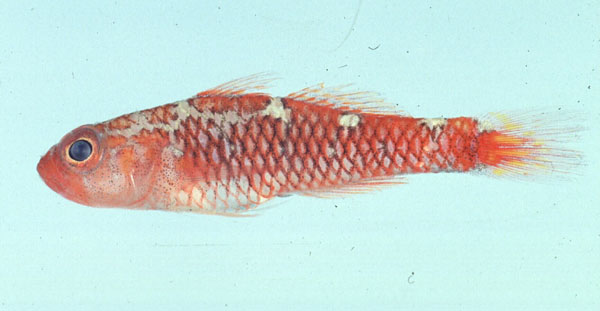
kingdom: Animalia
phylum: Chordata
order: Perciformes
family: Gobiidae
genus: Trimma
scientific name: Trimma caesiura
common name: Caesiura dwarfgoby
